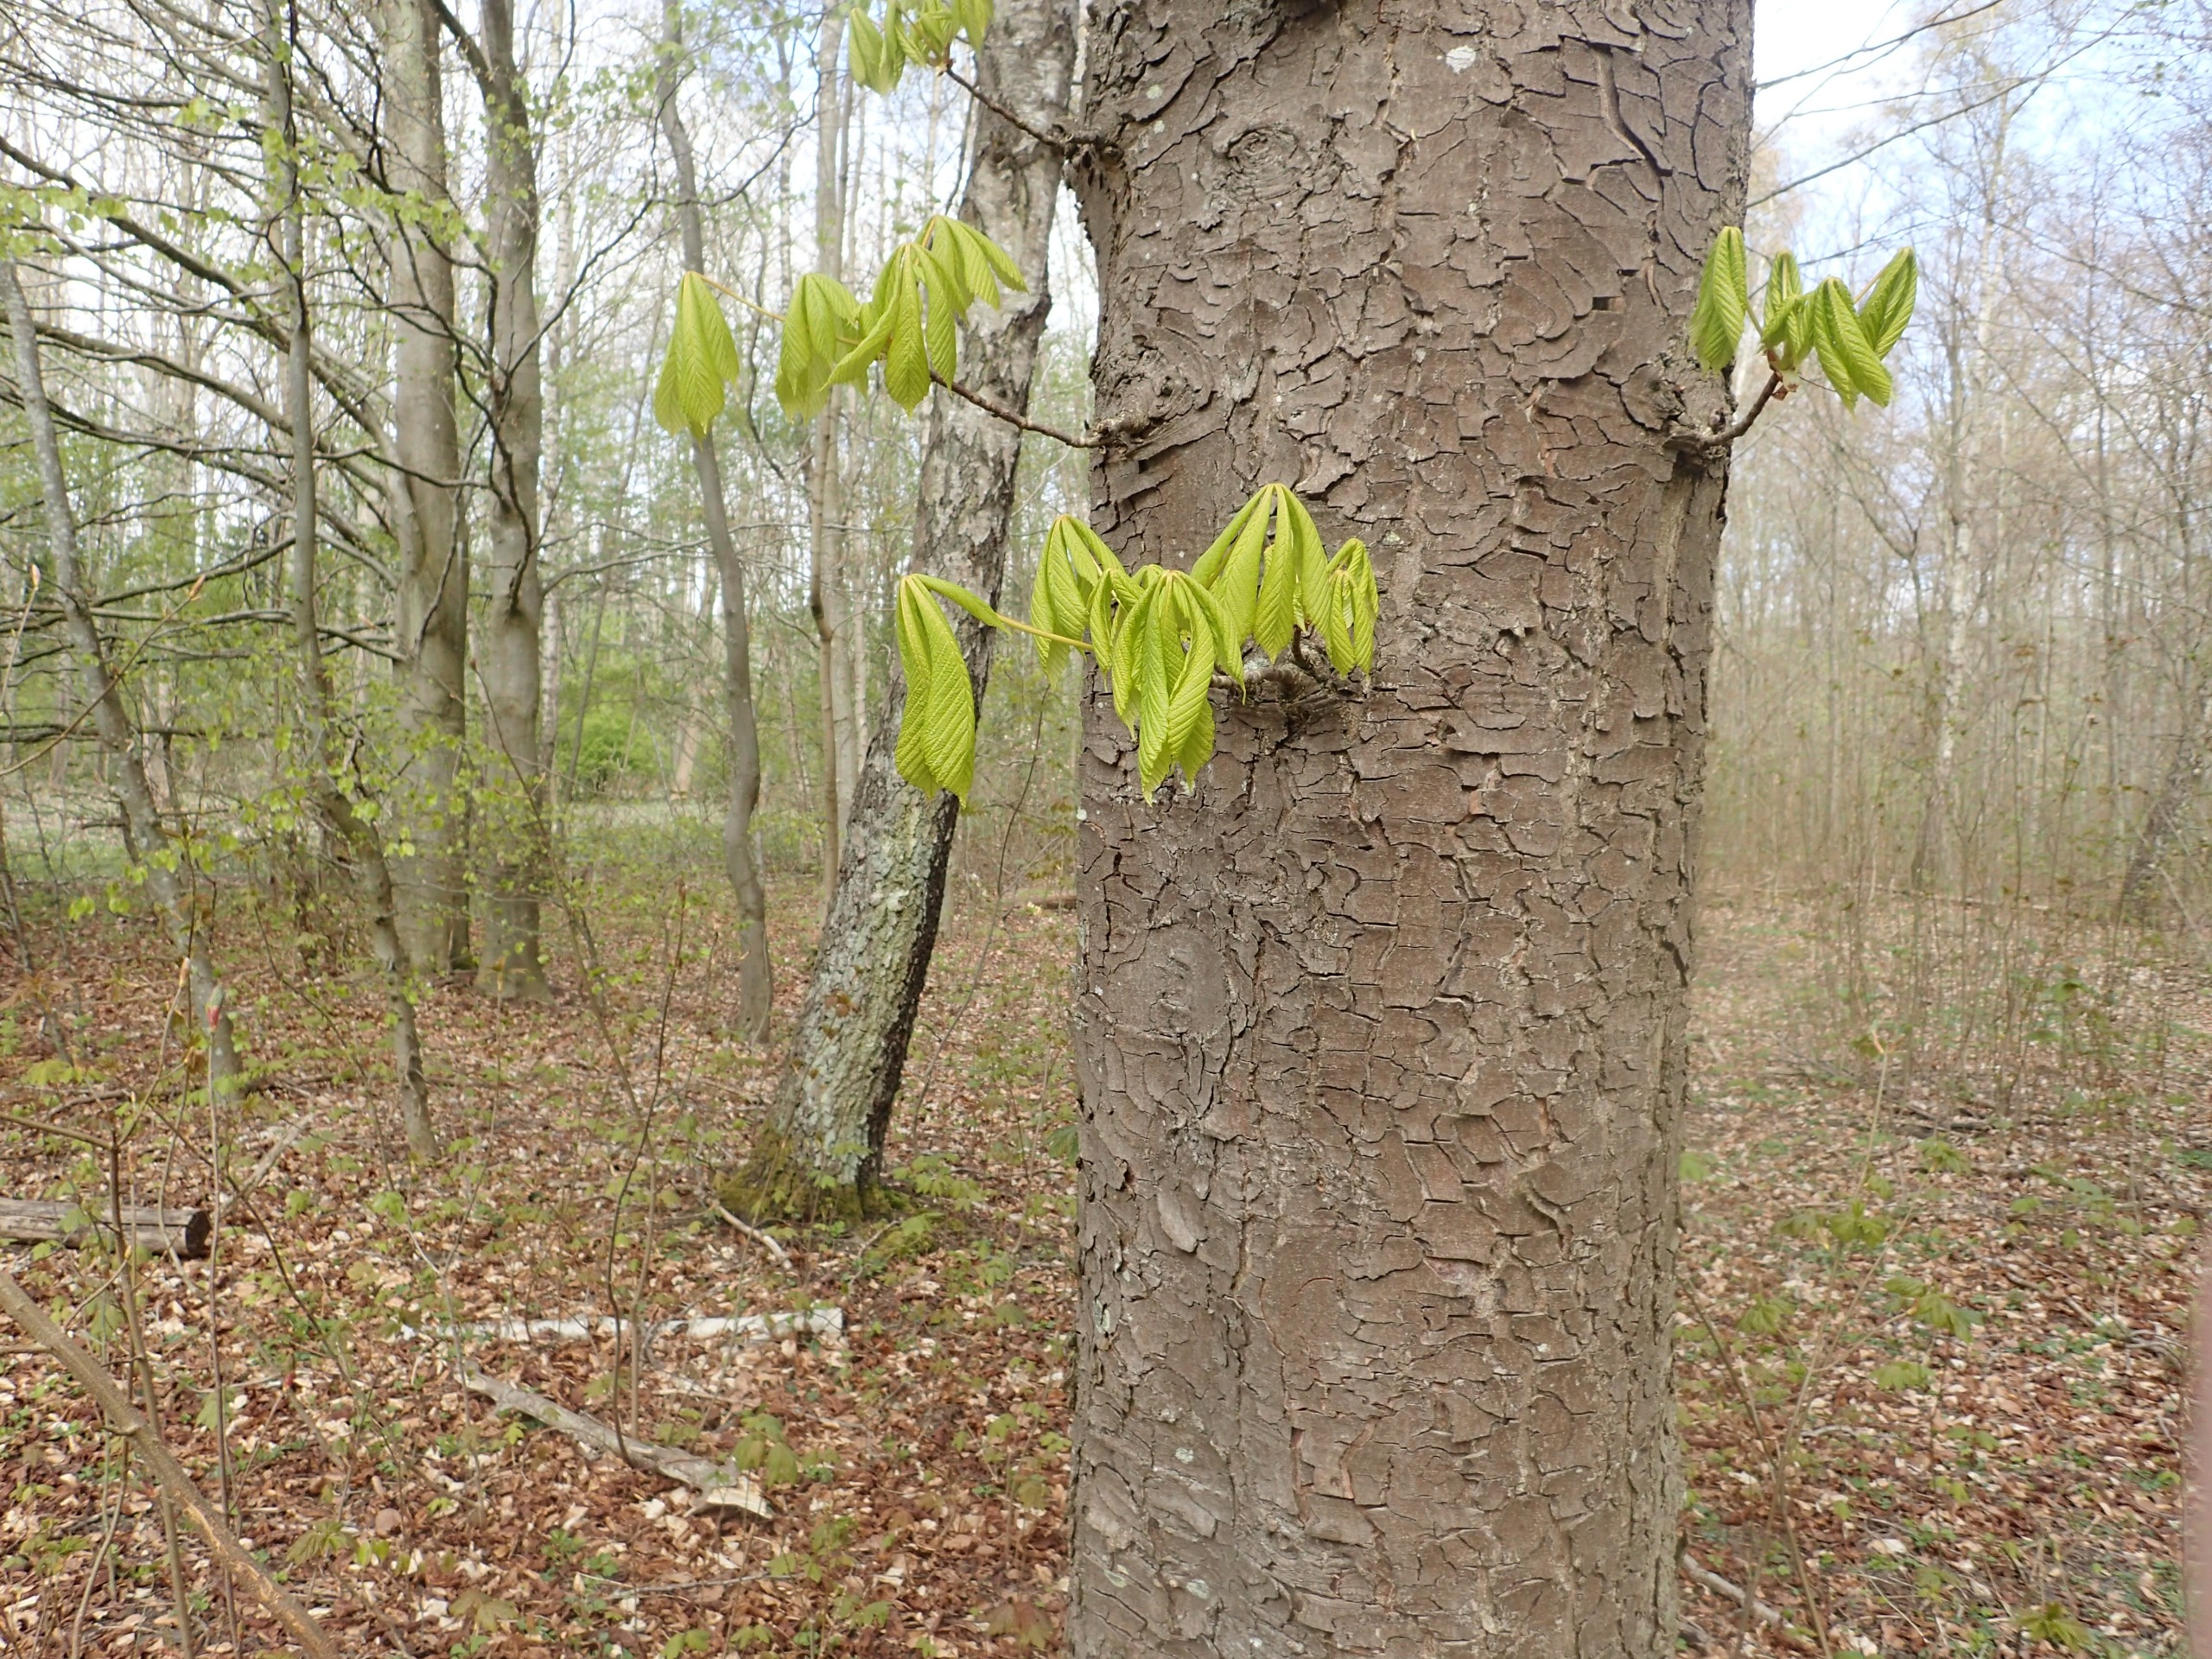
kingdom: Plantae
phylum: Tracheophyta
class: Magnoliopsida
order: Sapindales
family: Sapindaceae
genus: Aesculus
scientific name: Aesculus hippocastanum
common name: Hestekastanie
